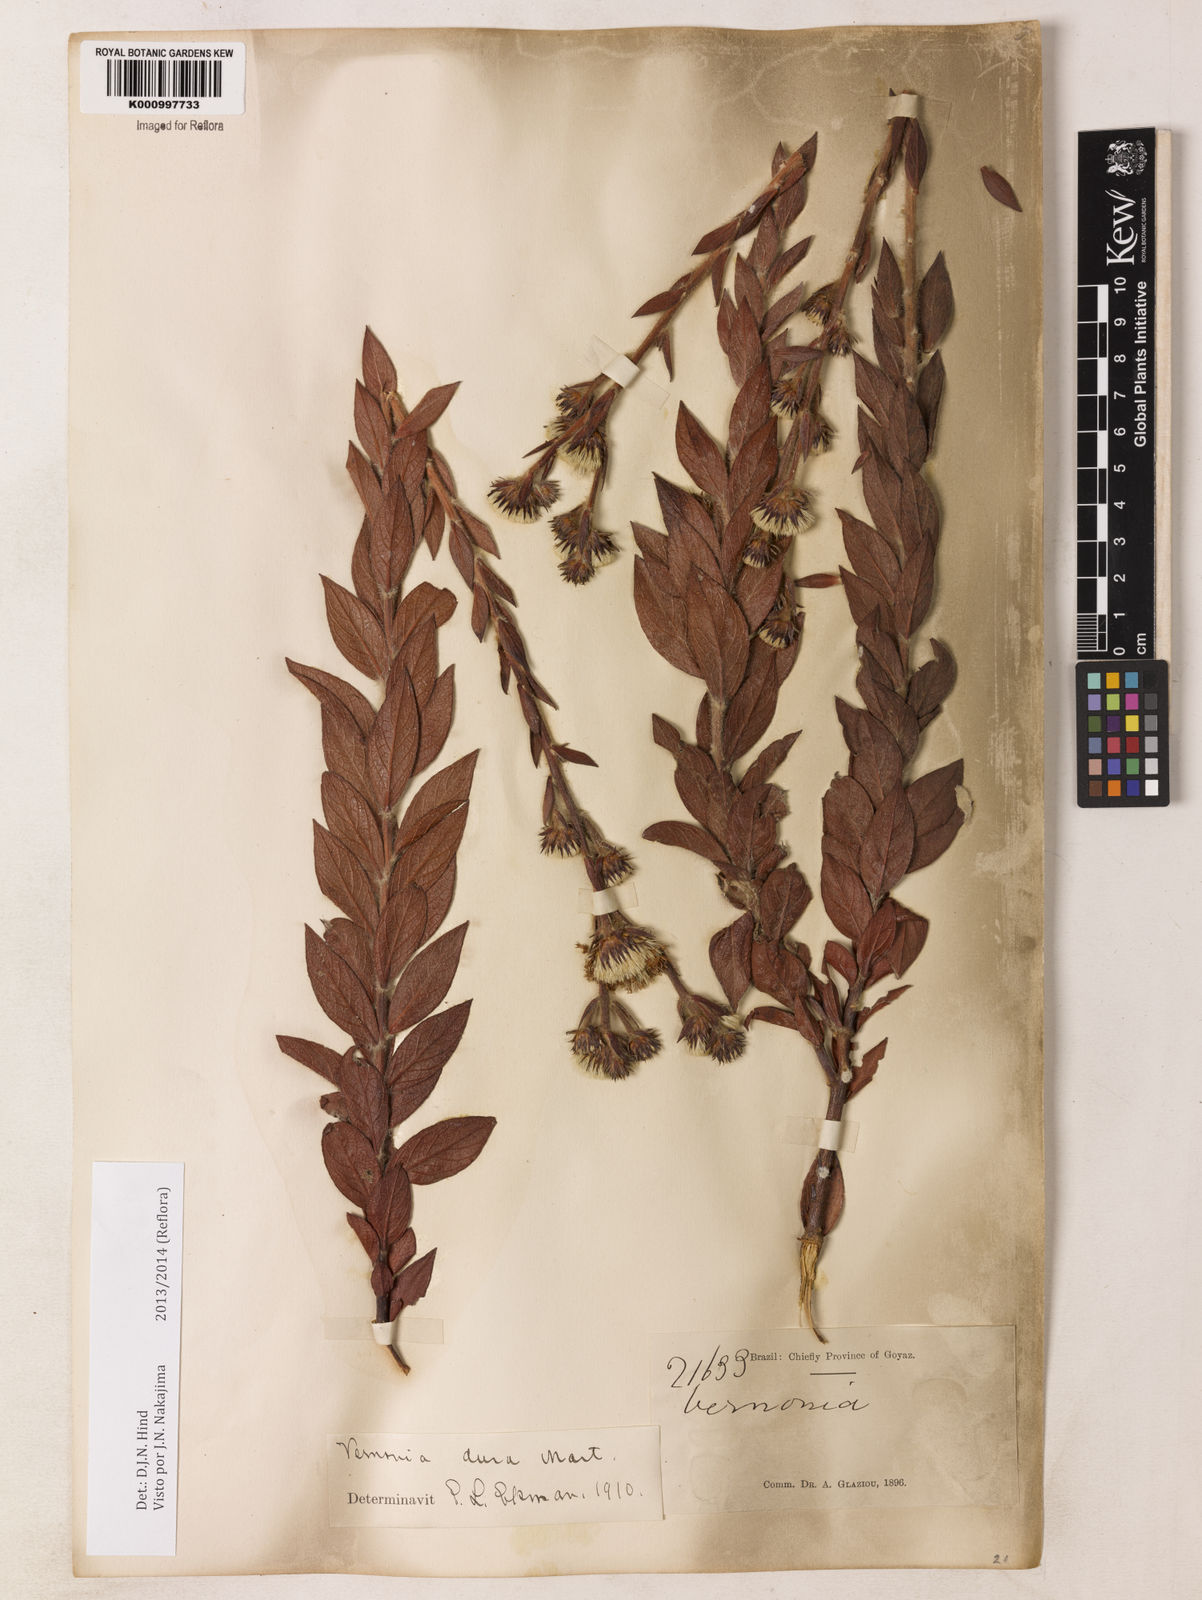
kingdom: Plantae
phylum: Tracheophyta
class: Magnoliopsida
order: Asterales
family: Asteraceae
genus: Lessingianthus
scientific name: Lessingianthus durus
